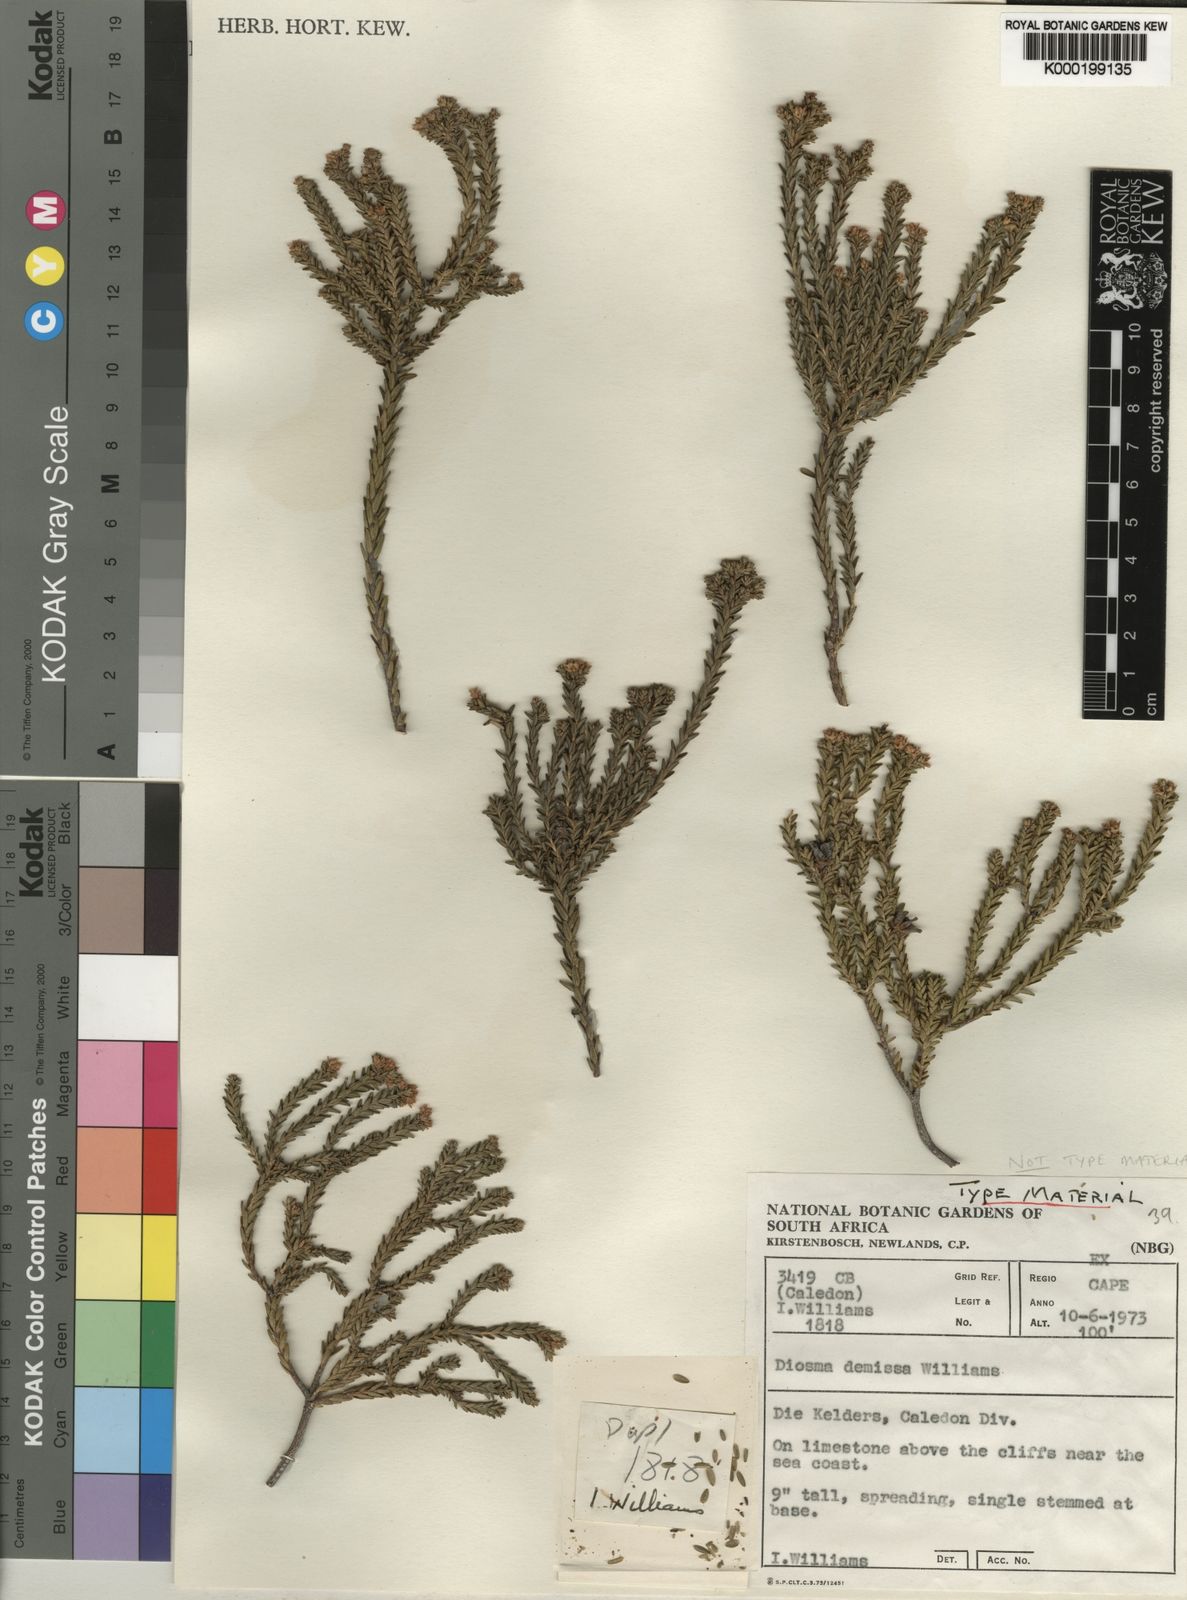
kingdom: Plantae
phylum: Tracheophyta
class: Magnoliopsida
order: Sapindales
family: Rutaceae
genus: Diosma
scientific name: Diosma demissa
